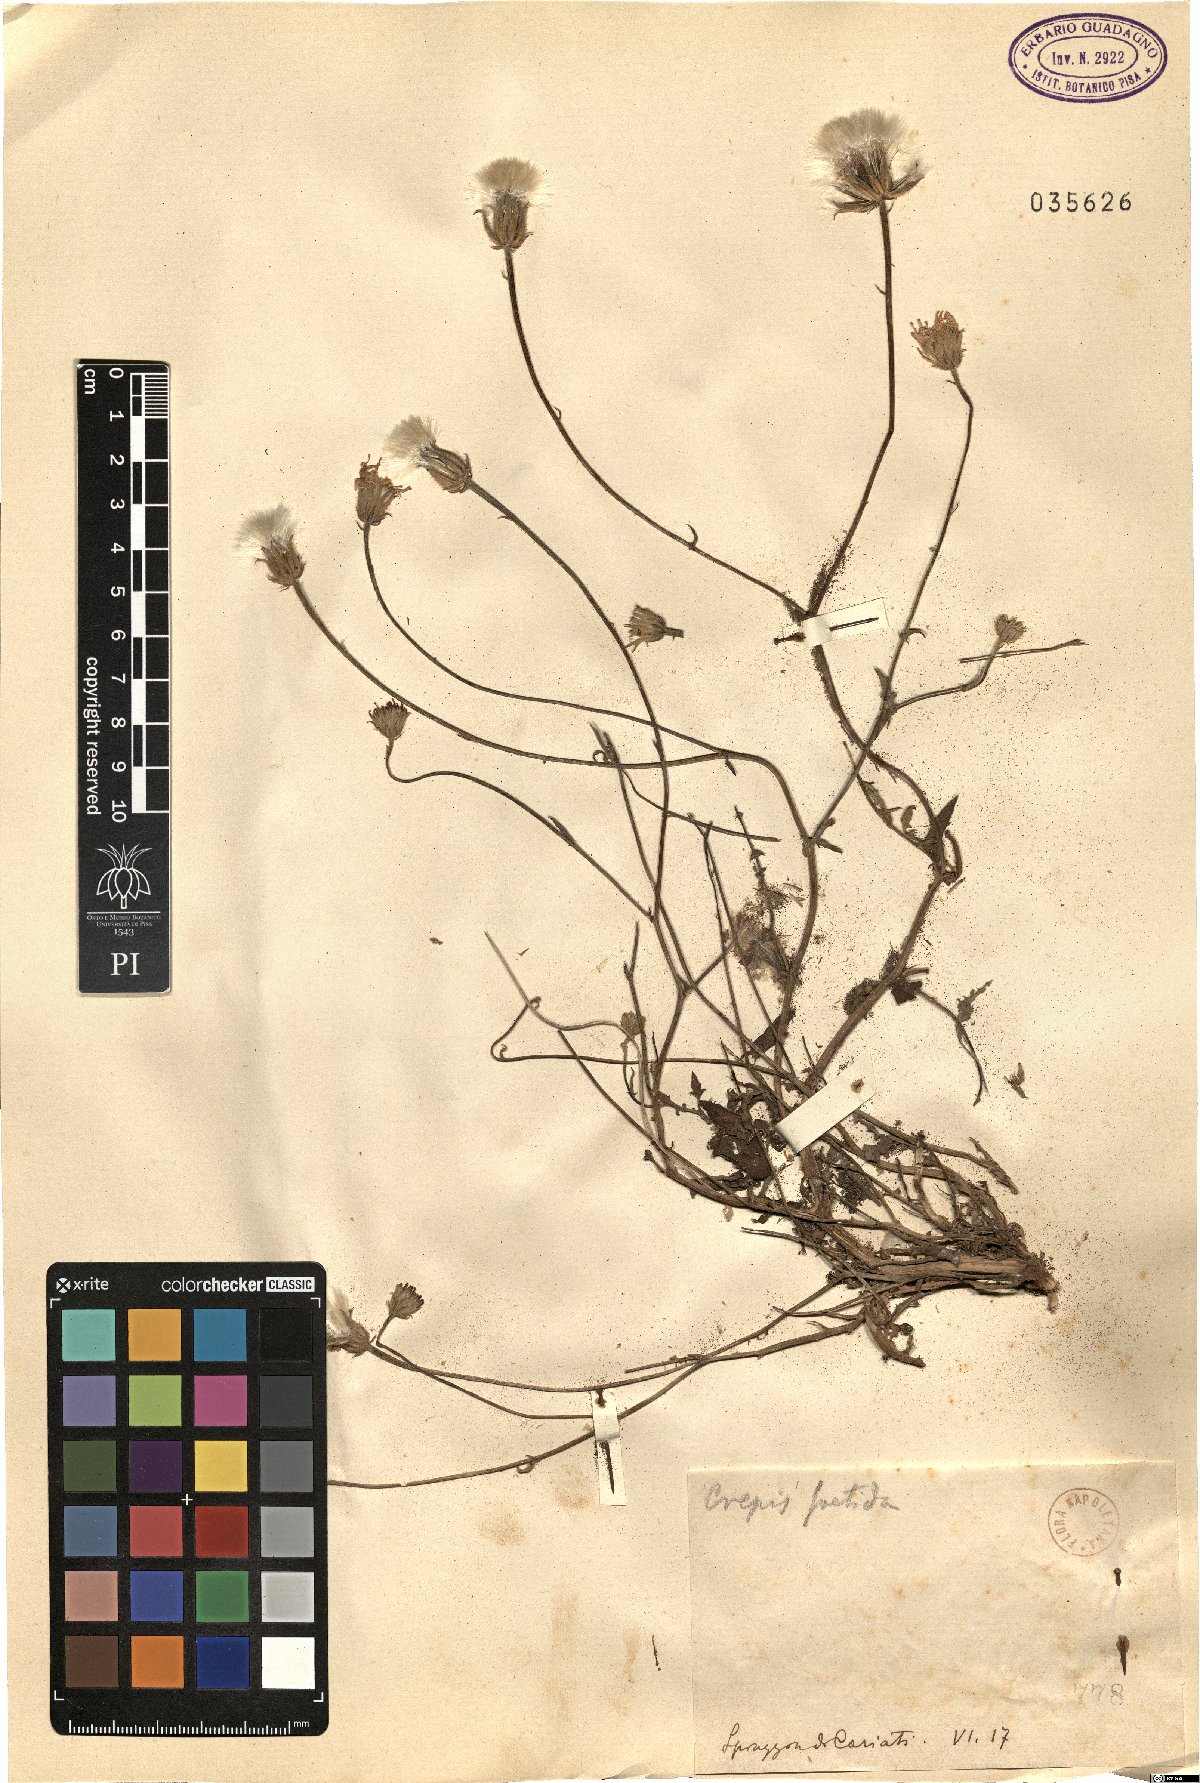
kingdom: Plantae
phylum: Tracheophyta
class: Magnoliopsida
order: Asterales
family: Asteraceae
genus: Crepis
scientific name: Crepis foetida
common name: Stinking hawk's-beard
